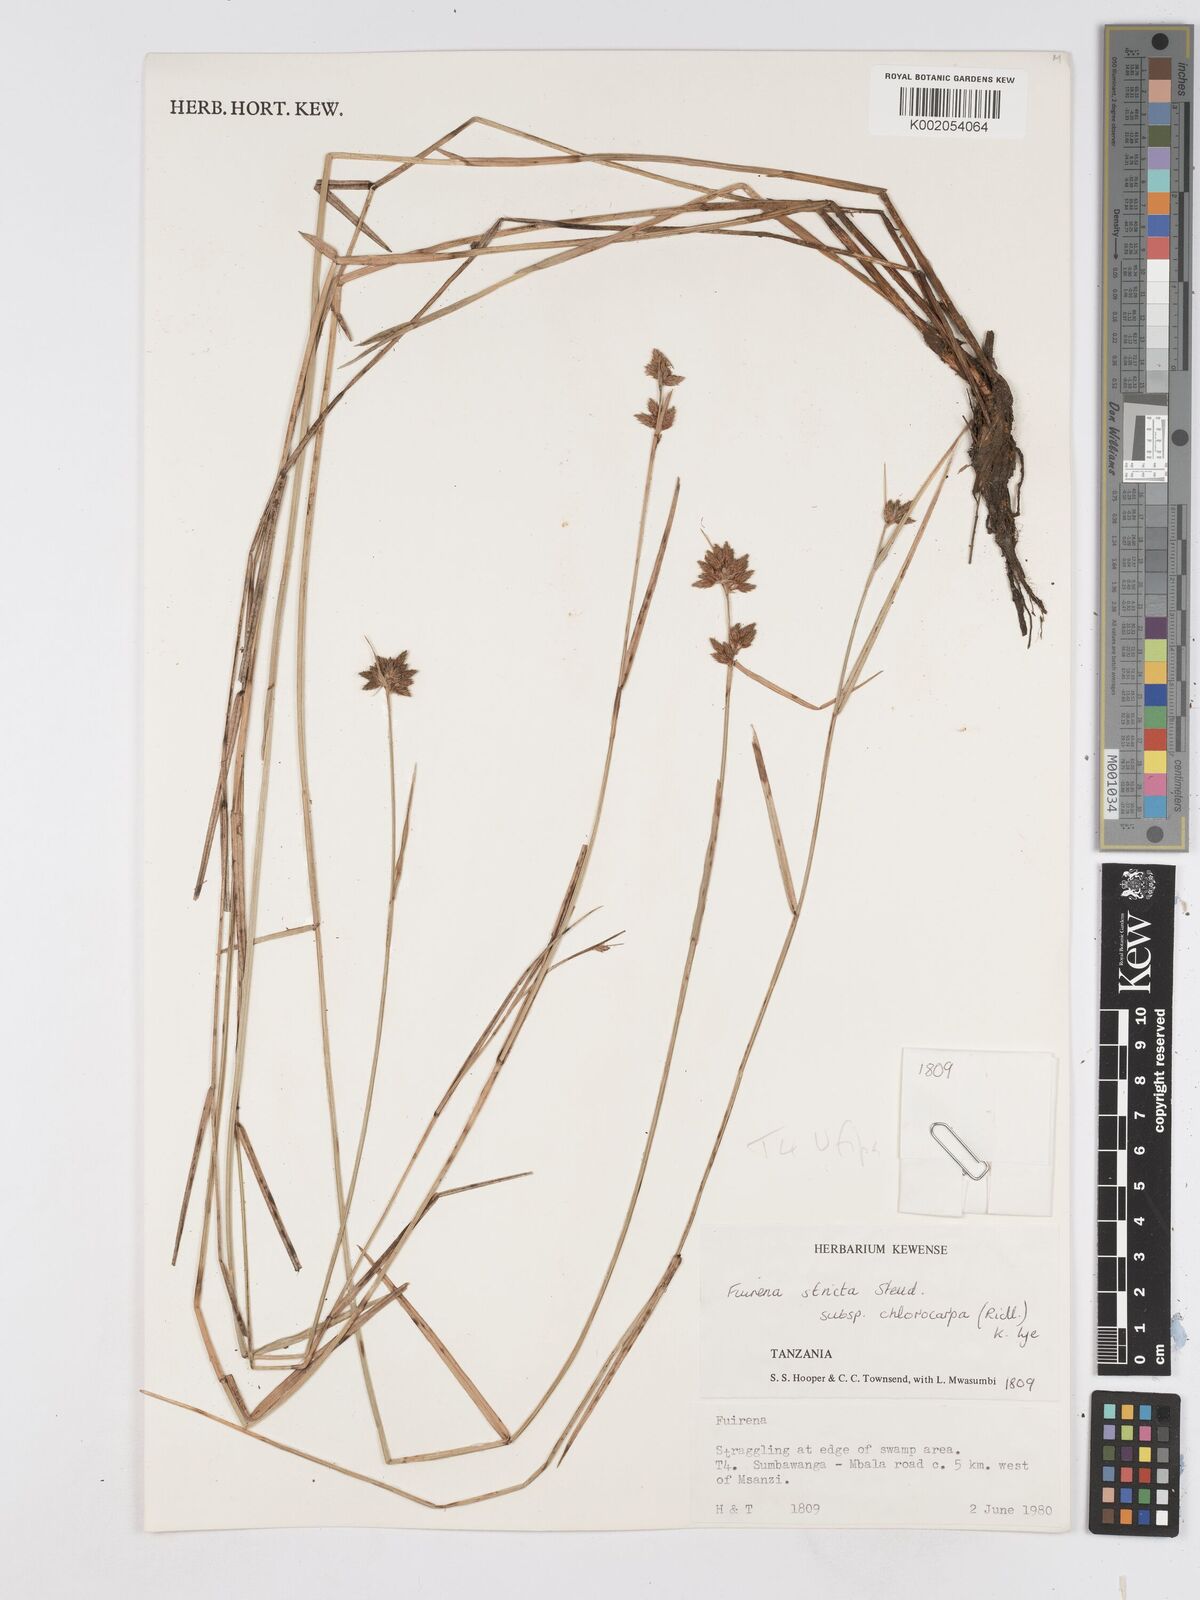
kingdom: Plantae
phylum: Tracheophyta
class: Liliopsida
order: Poales
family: Cyperaceae
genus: Fuirena
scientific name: Fuirena stricta
